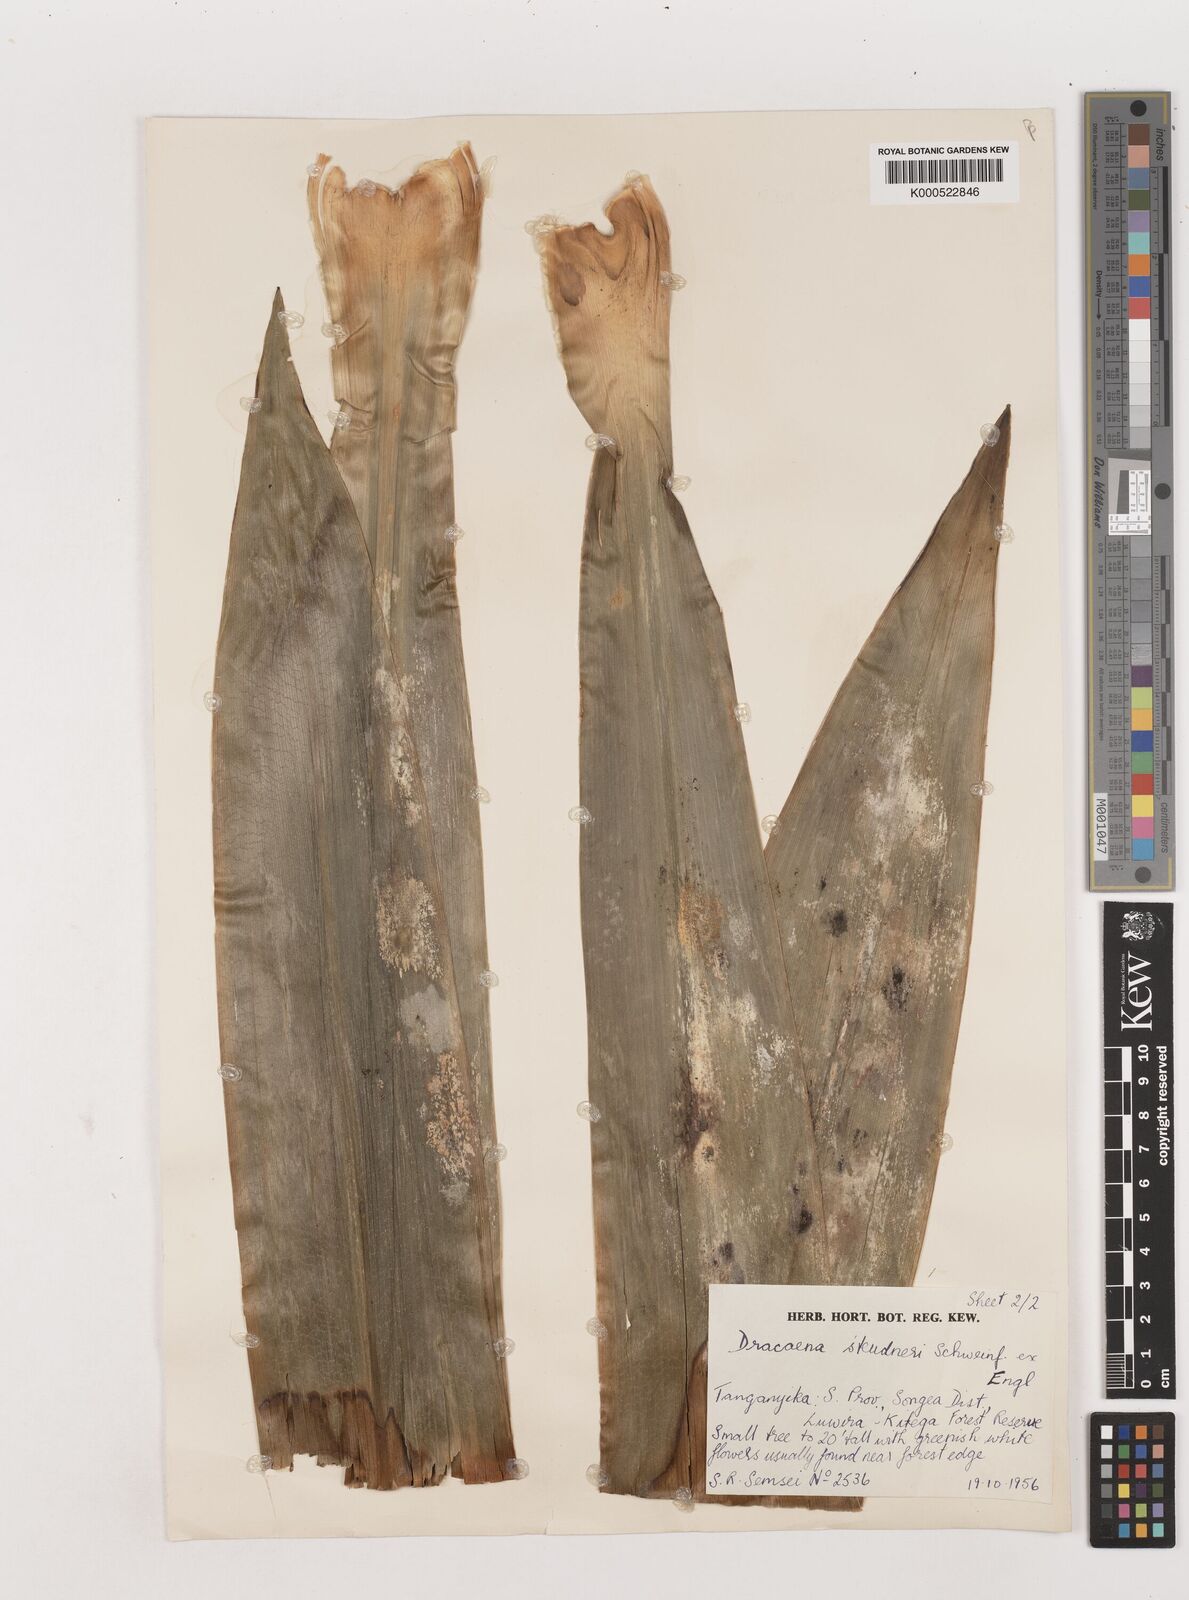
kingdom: Plantae
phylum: Tracheophyta
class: Liliopsida
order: Asparagales
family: Asparagaceae
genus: Dracaena
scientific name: Dracaena steudneri
